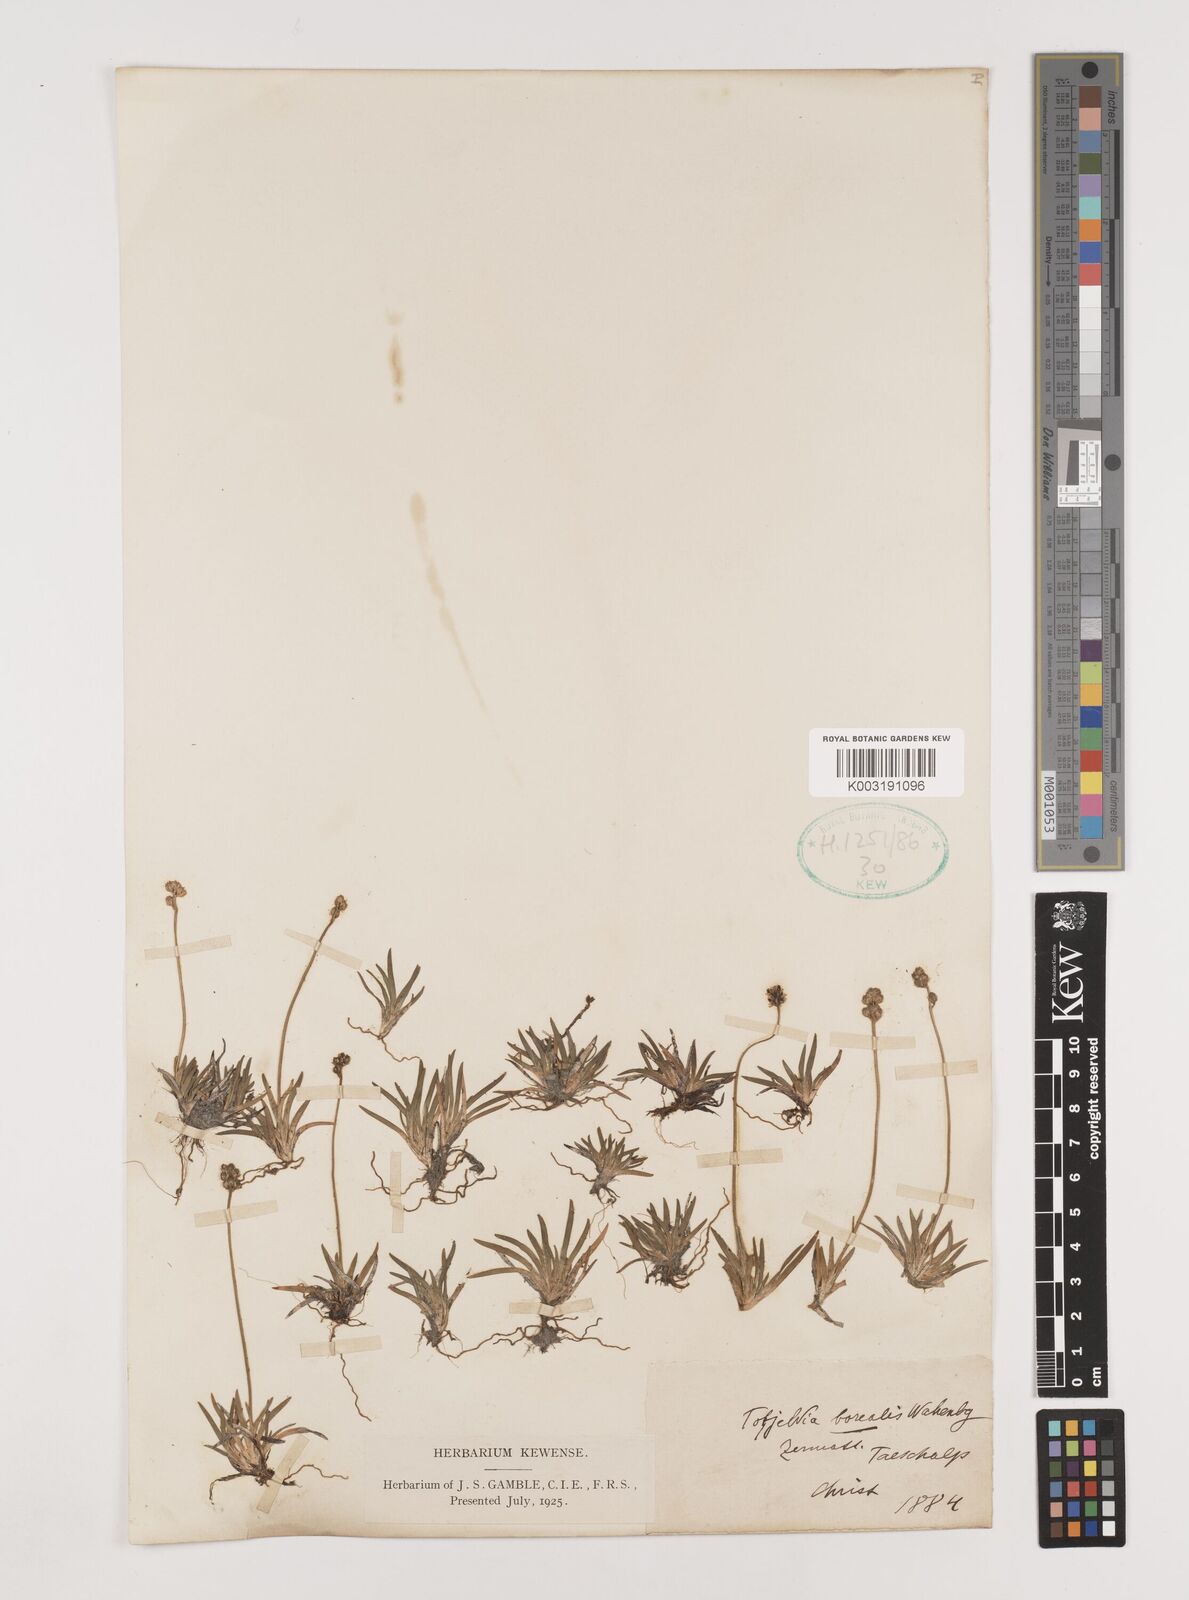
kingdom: Plantae
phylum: Tracheophyta
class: Liliopsida
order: Alismatales
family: Tofieldiaceae
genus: Tofieldia
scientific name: Tofieldia pusilla
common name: Scottish false asphodel
